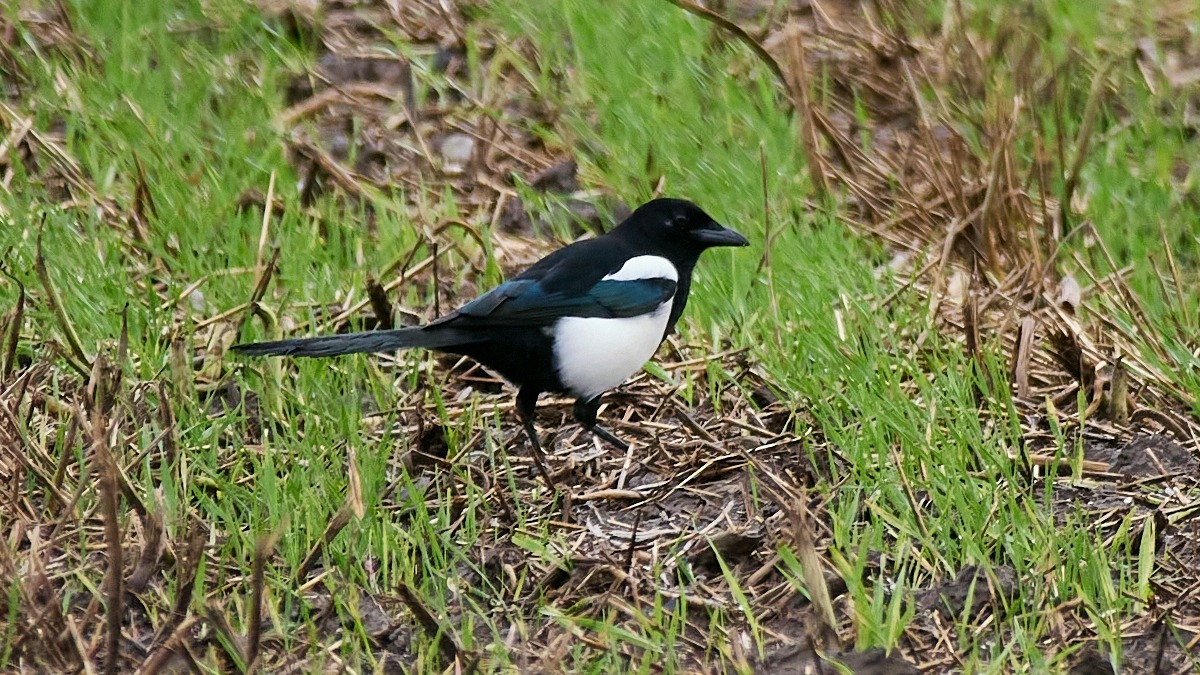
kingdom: Animalia
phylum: Chordata
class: Aves
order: Passeriformes
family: Corvidae
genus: Pica
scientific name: Pica pica
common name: Husskade
